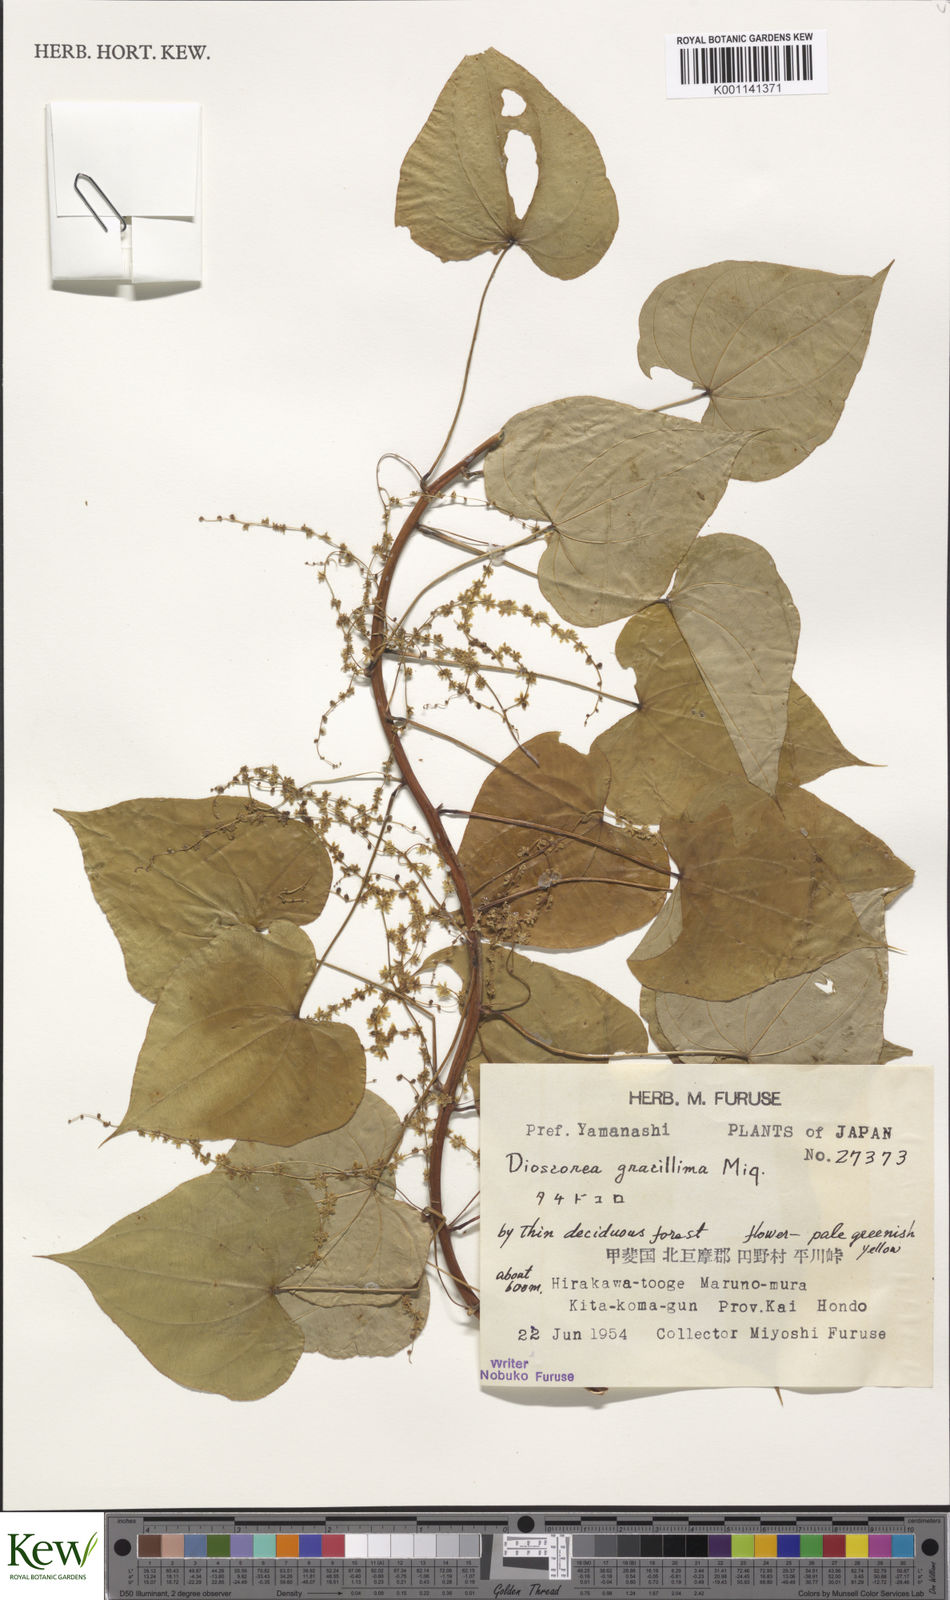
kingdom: Plantae
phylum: Tracheophyta
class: Liliopsida
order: Dioscoreales
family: Dioscoreaceae
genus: Dioscorea
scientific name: Dioscorea gracillima
